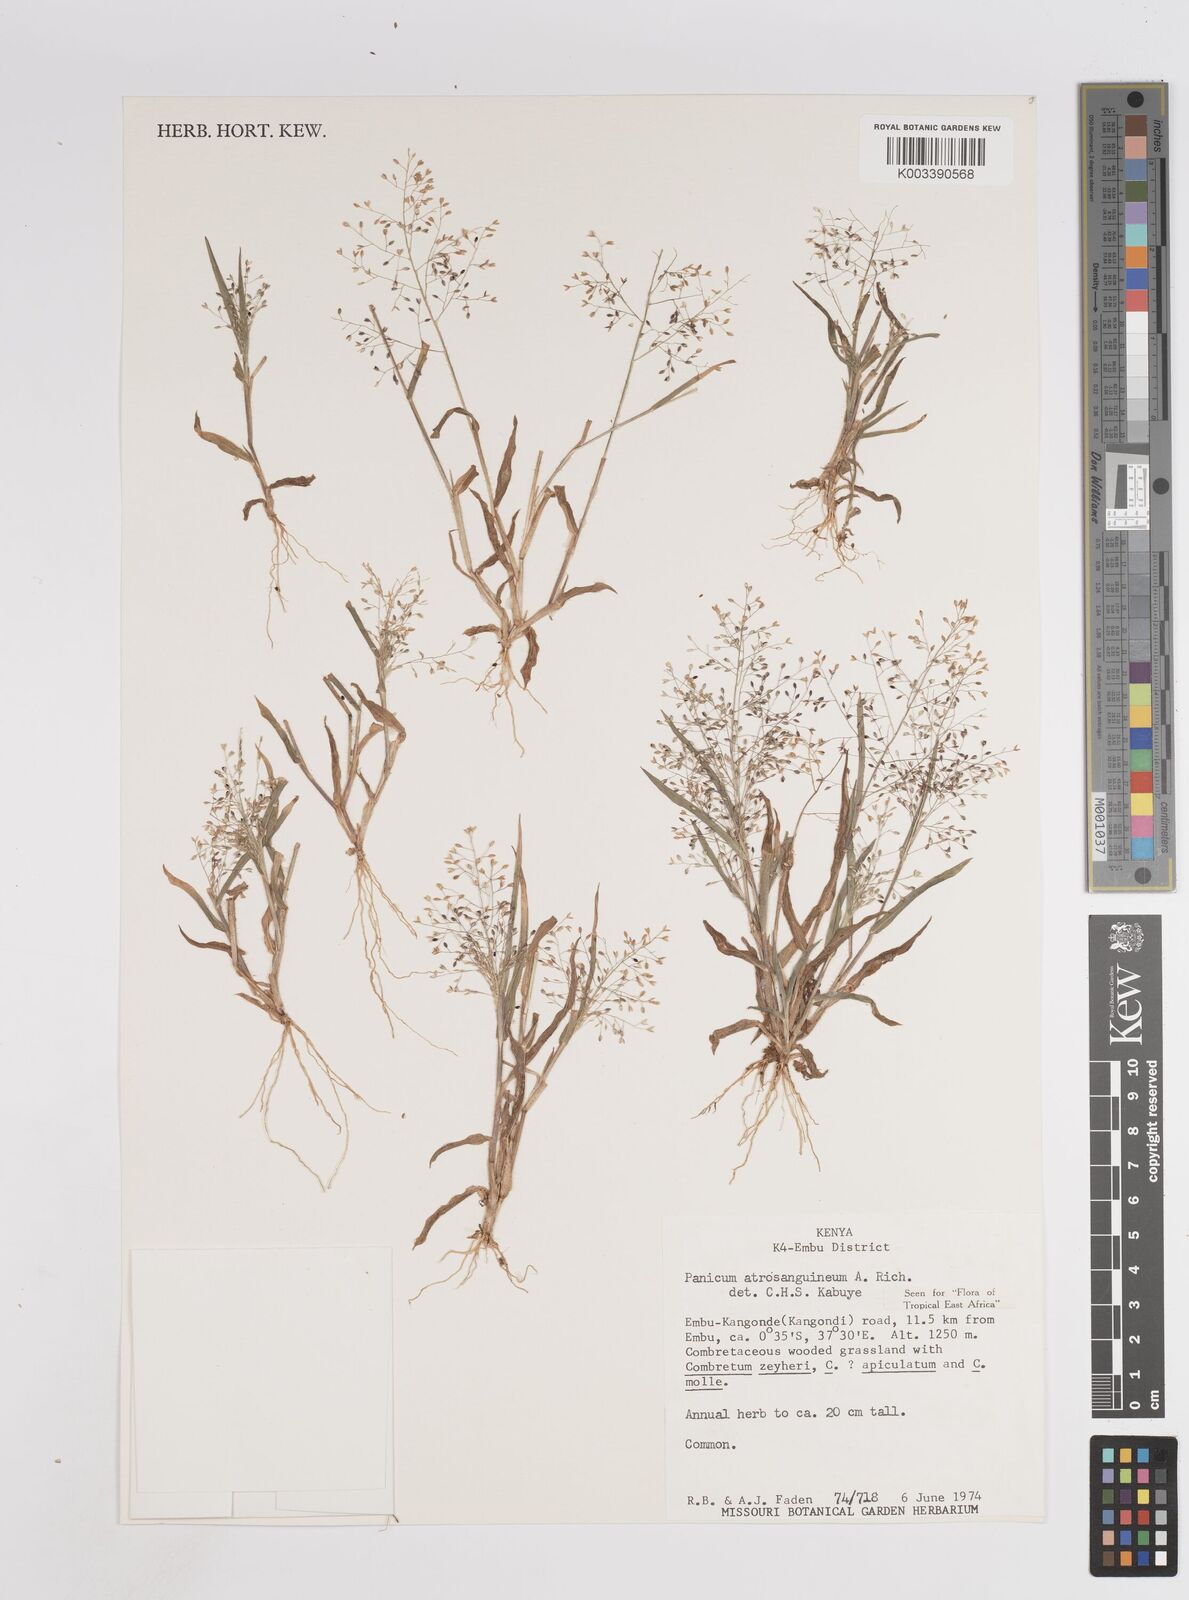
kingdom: Plantae
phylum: Tracheophyta
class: Liliopsida
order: Poales
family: Poaceae
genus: Panicum
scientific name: Panicum atrosanguineum
